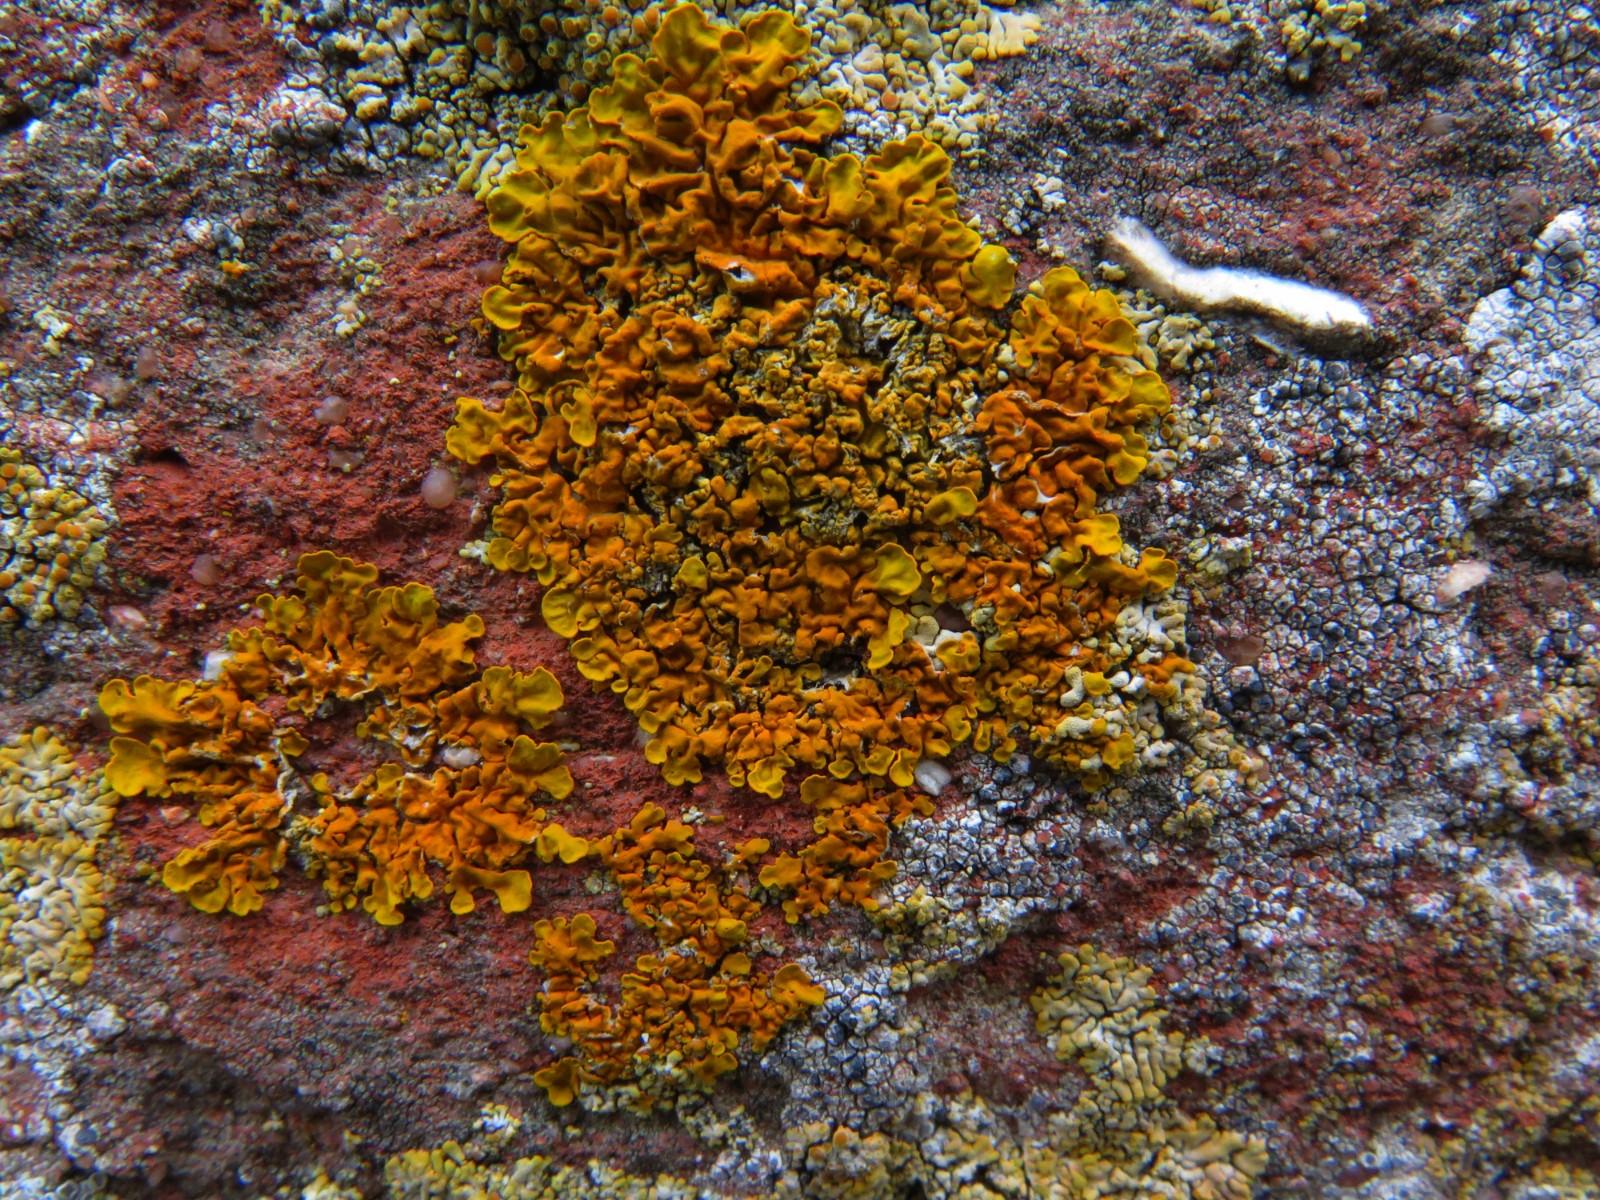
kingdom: Fungi
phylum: Ascomycota
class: Lecanoromycetes
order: Teloschistales
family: Teloschistaceae
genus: Xanthoria
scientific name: Xanthoria calcicola
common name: vortet væggelav
